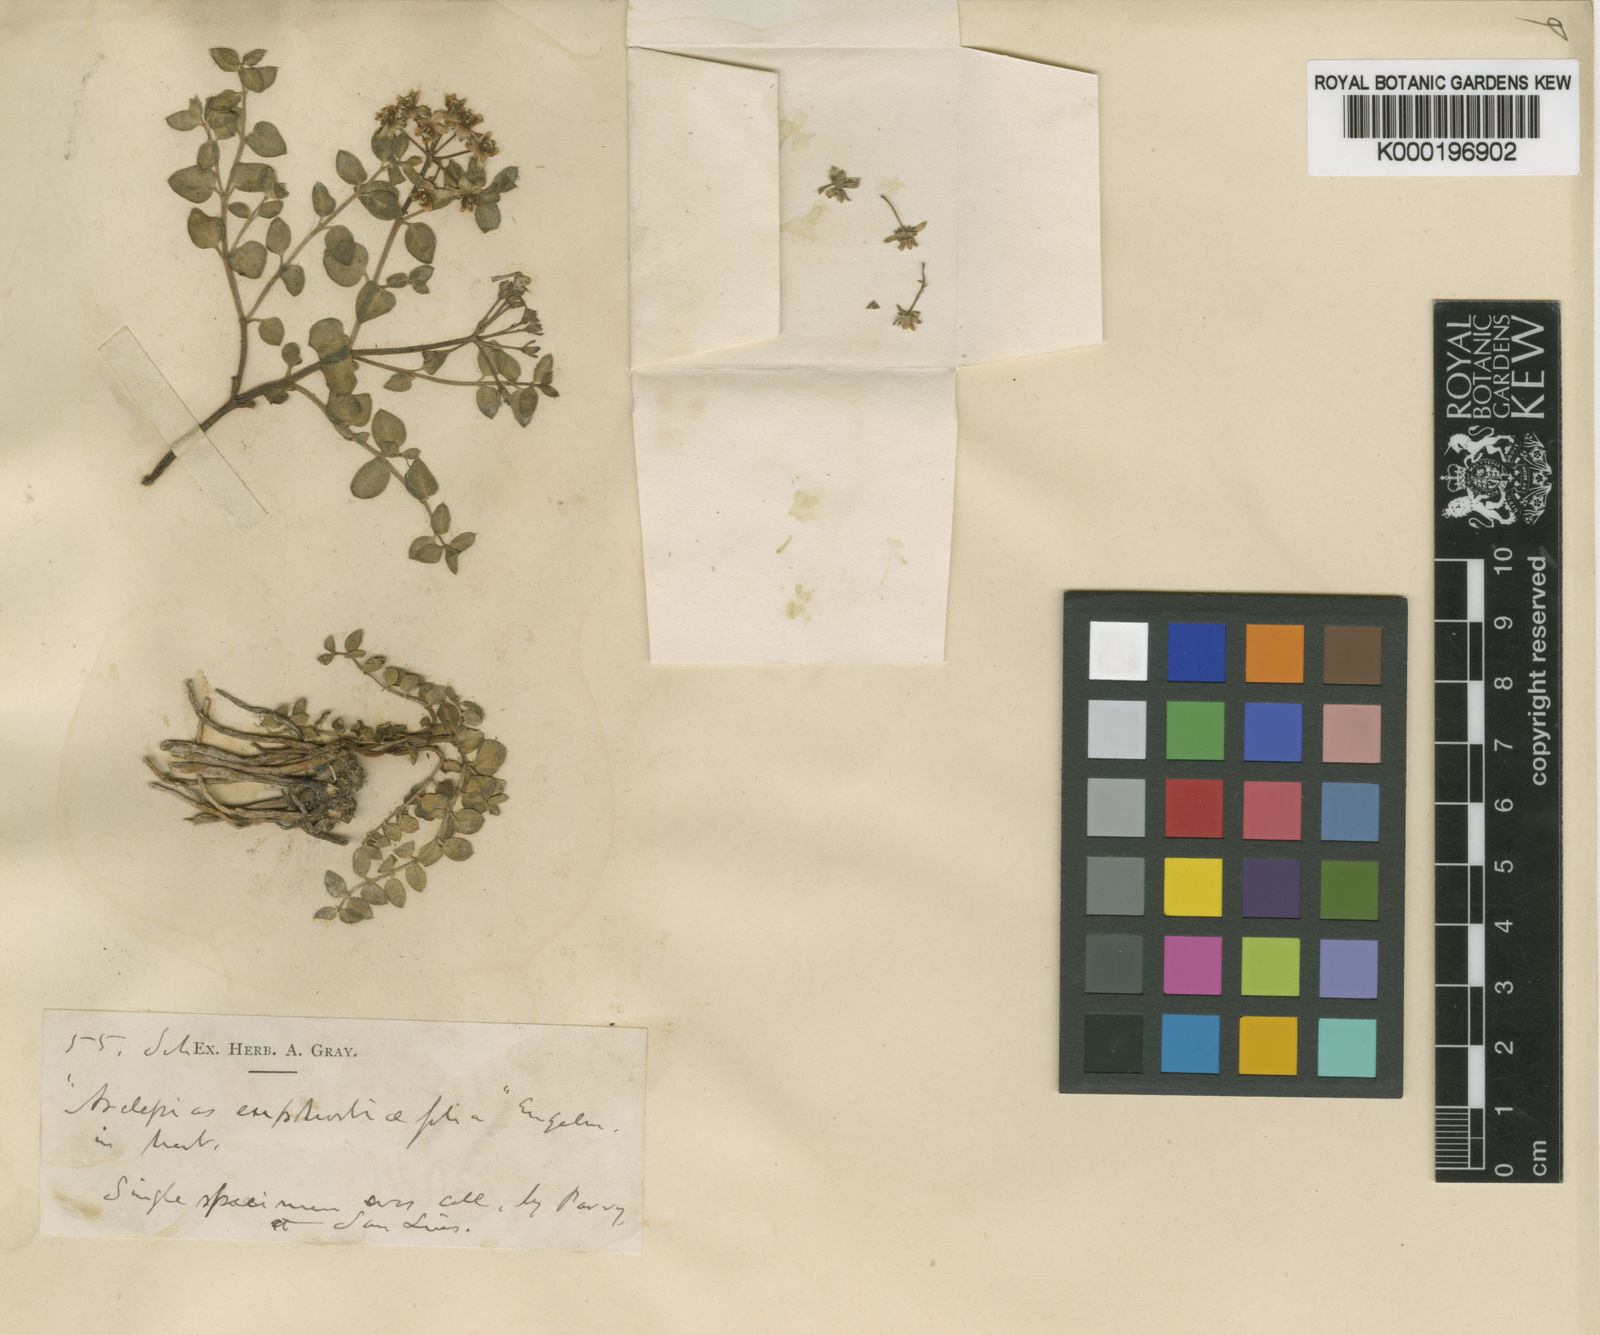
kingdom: Plantae
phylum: Tracheophyta
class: Magnoliopsida
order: Gentianales
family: Apocynaceae
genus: Asclepias
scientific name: Asclepias
